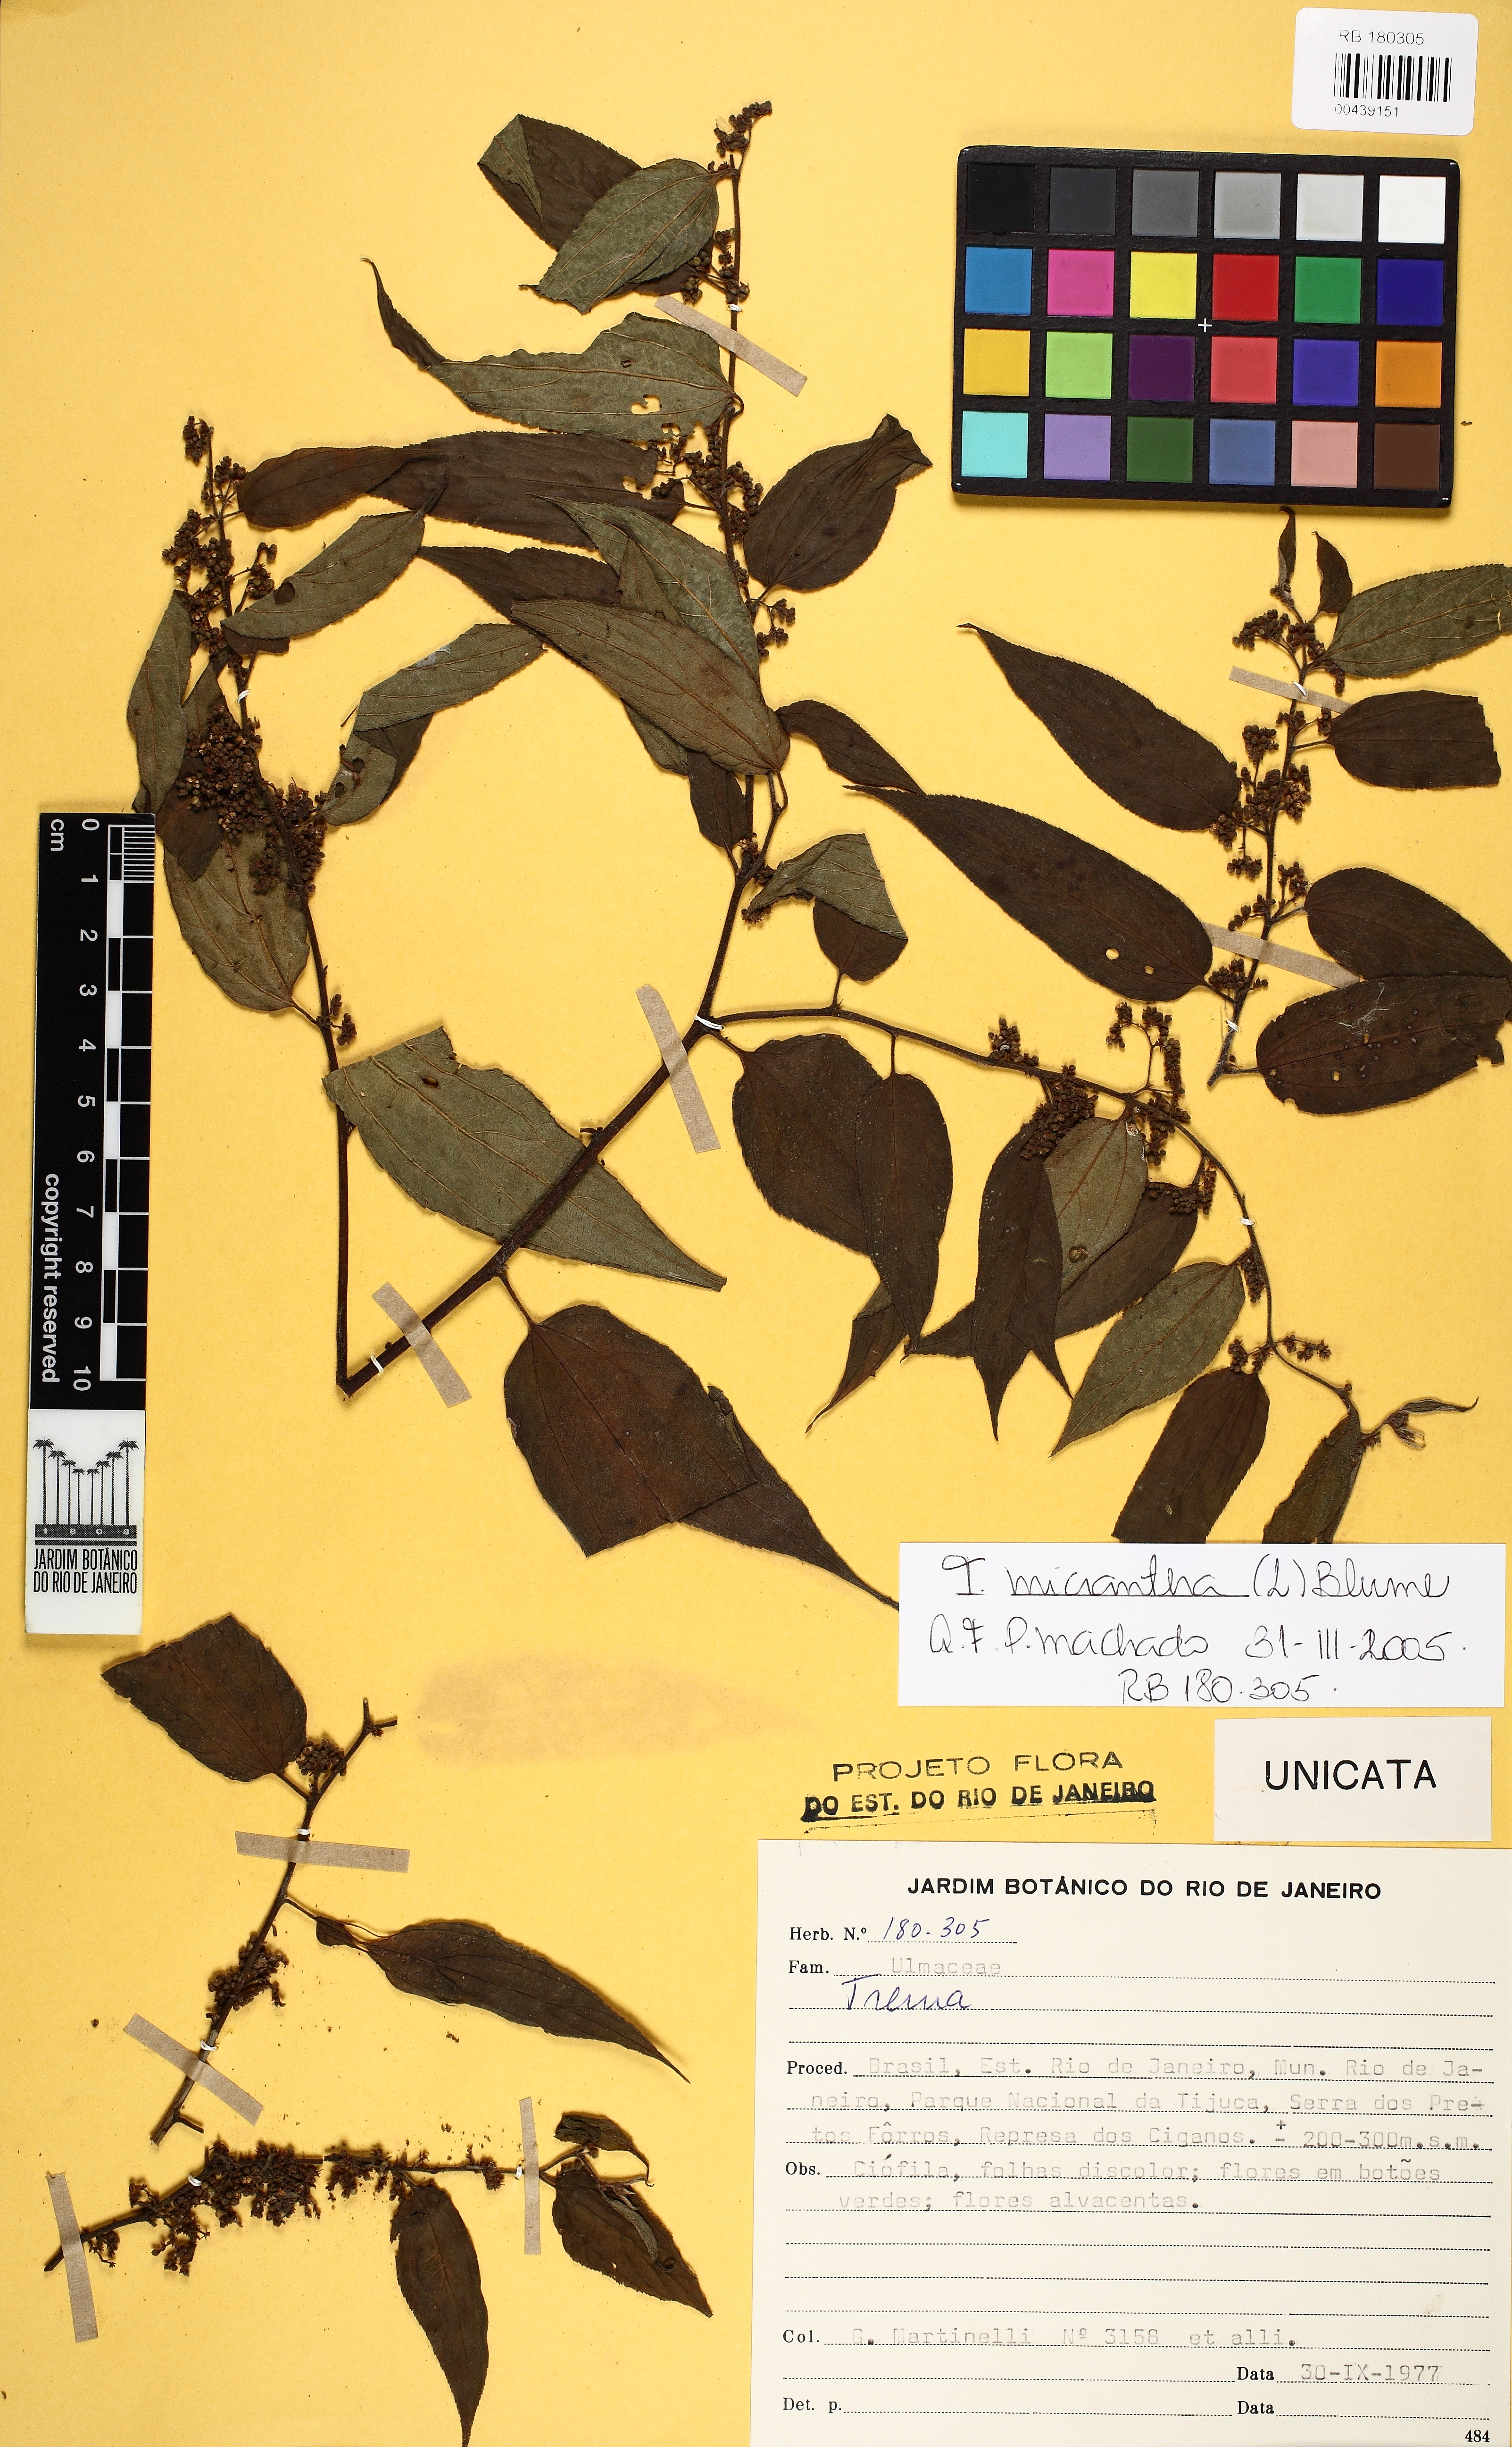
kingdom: Plantae
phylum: Tracheophyta
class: Magnoliopsida
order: Rosales
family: Cannabaceae
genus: Trema
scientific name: Trema micranthum
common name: Jamaican nettletree
